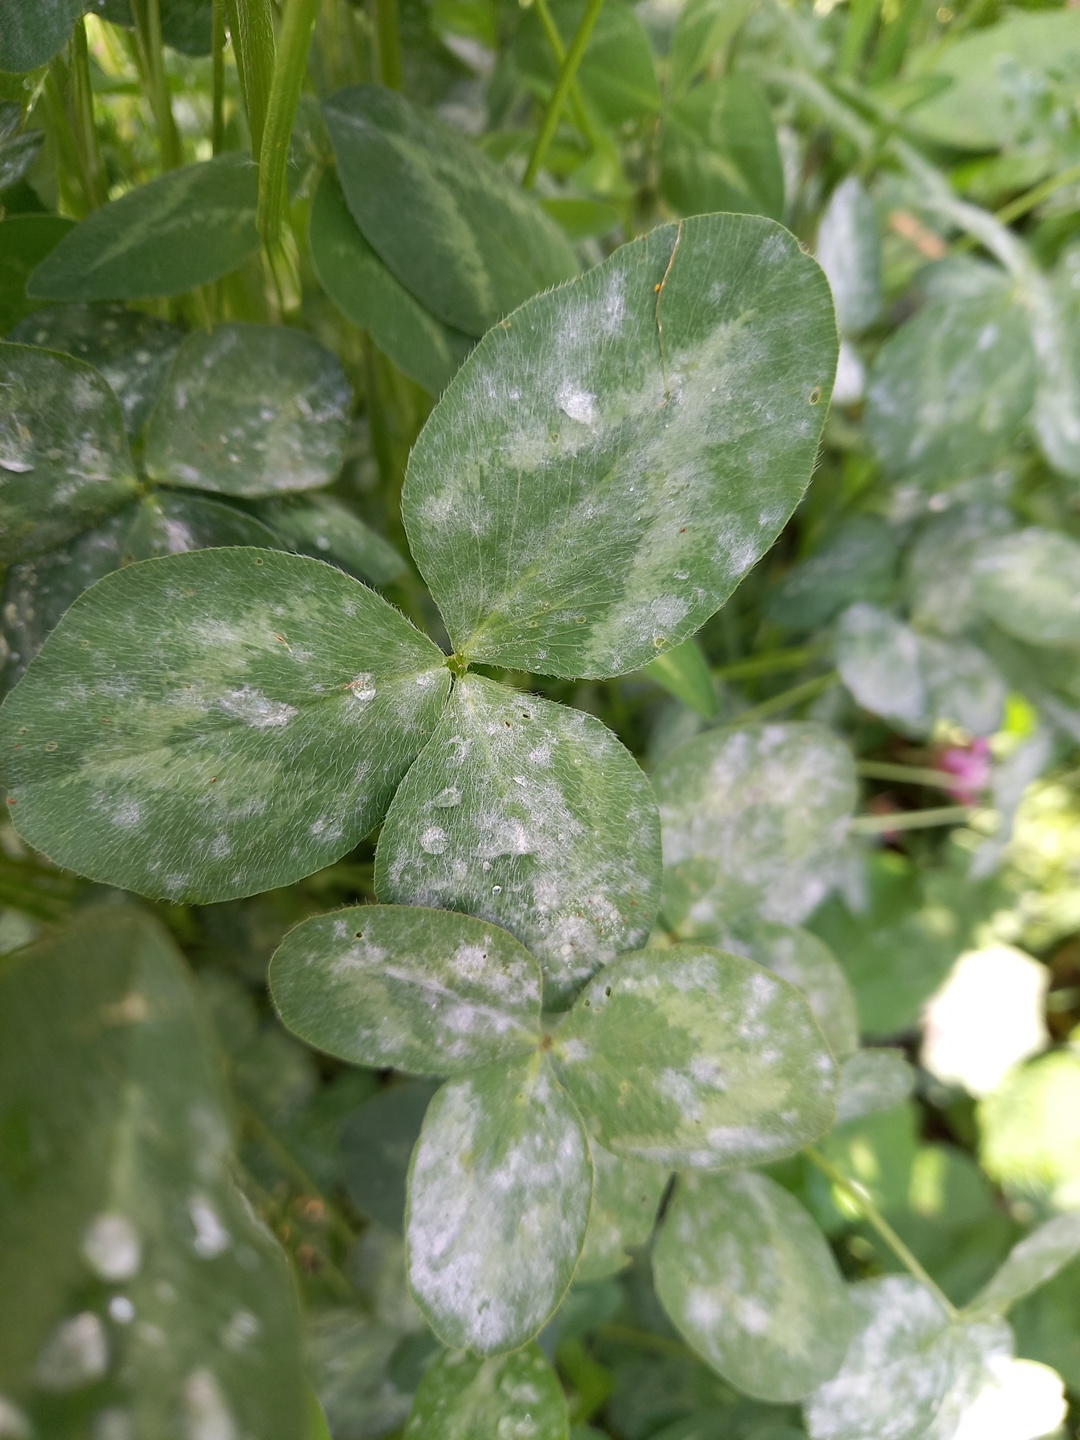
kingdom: Fungi
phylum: Ascomycota
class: Leotiomycetes
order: Helotiales
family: Erysiphaceae
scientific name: Erysiphaceae
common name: meldugfamilien
